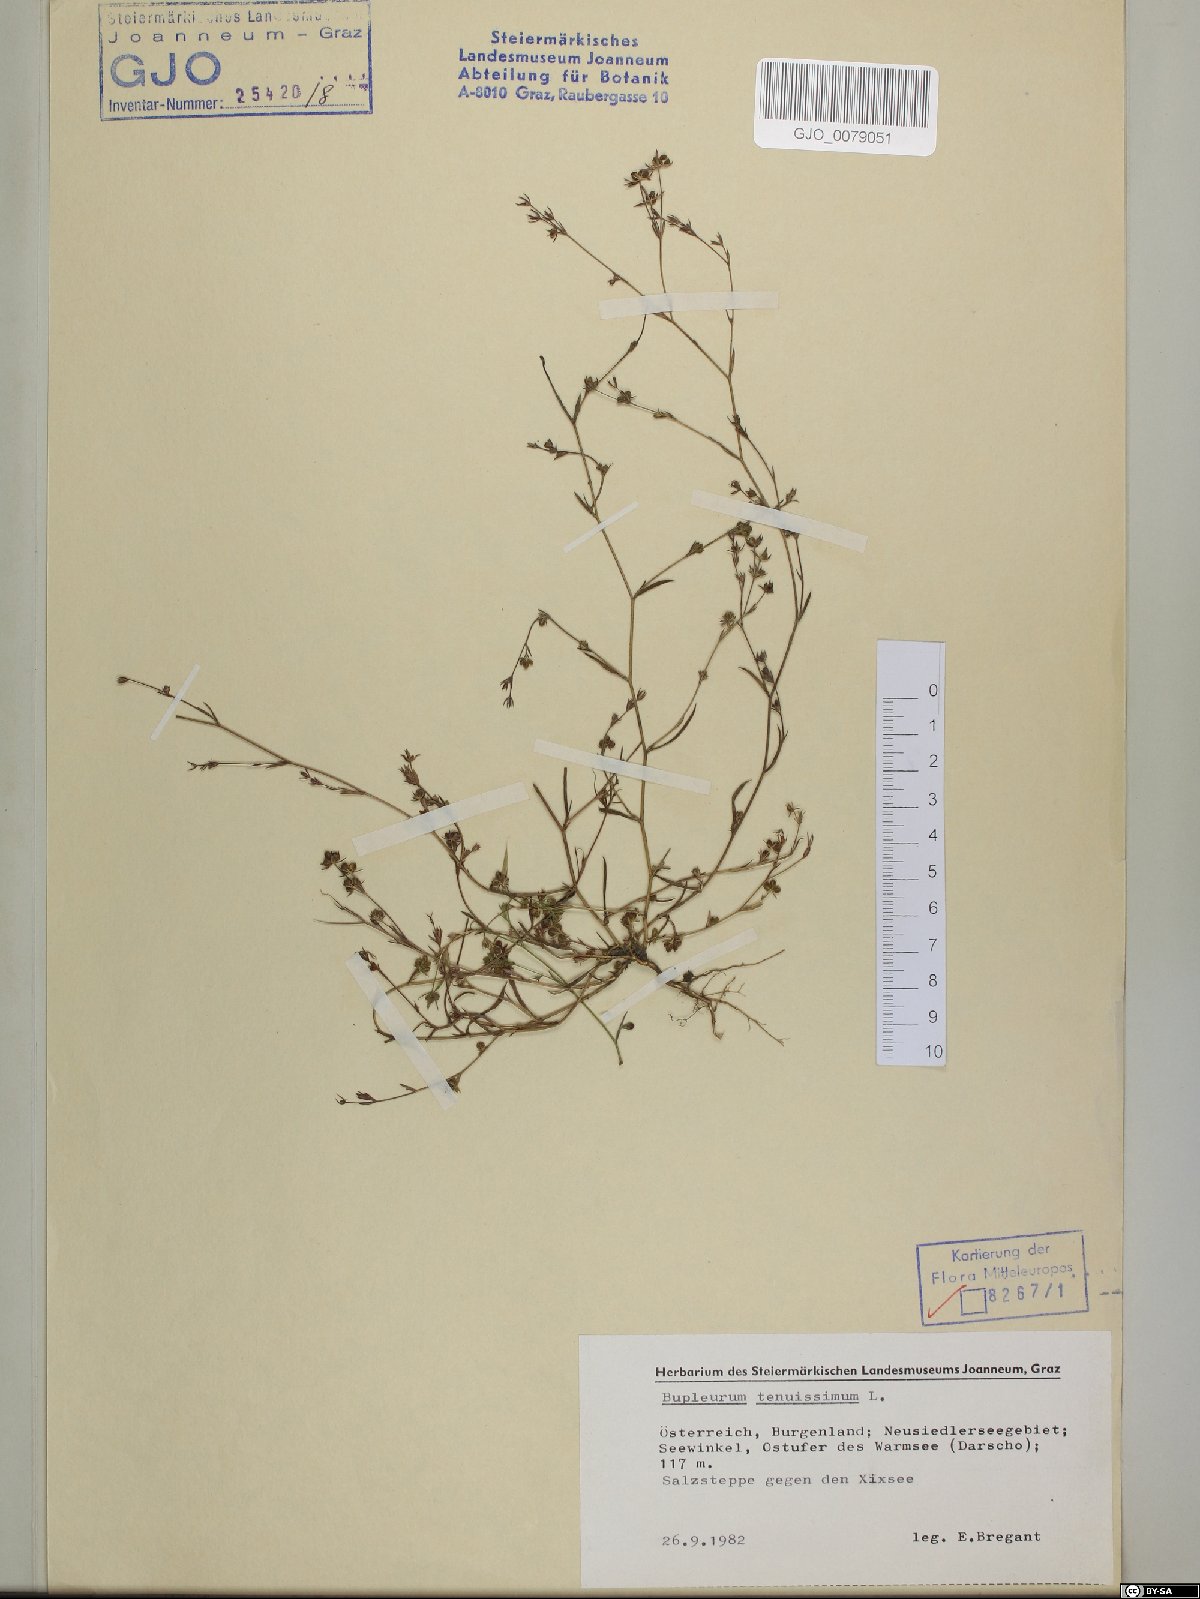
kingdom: Plantae
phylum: Tracheophyta
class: Magnoliopsida
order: Apiales
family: Apiaceae
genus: Bupleurum
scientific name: Bupleurum tenuissimum
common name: Slender hare's-ear
